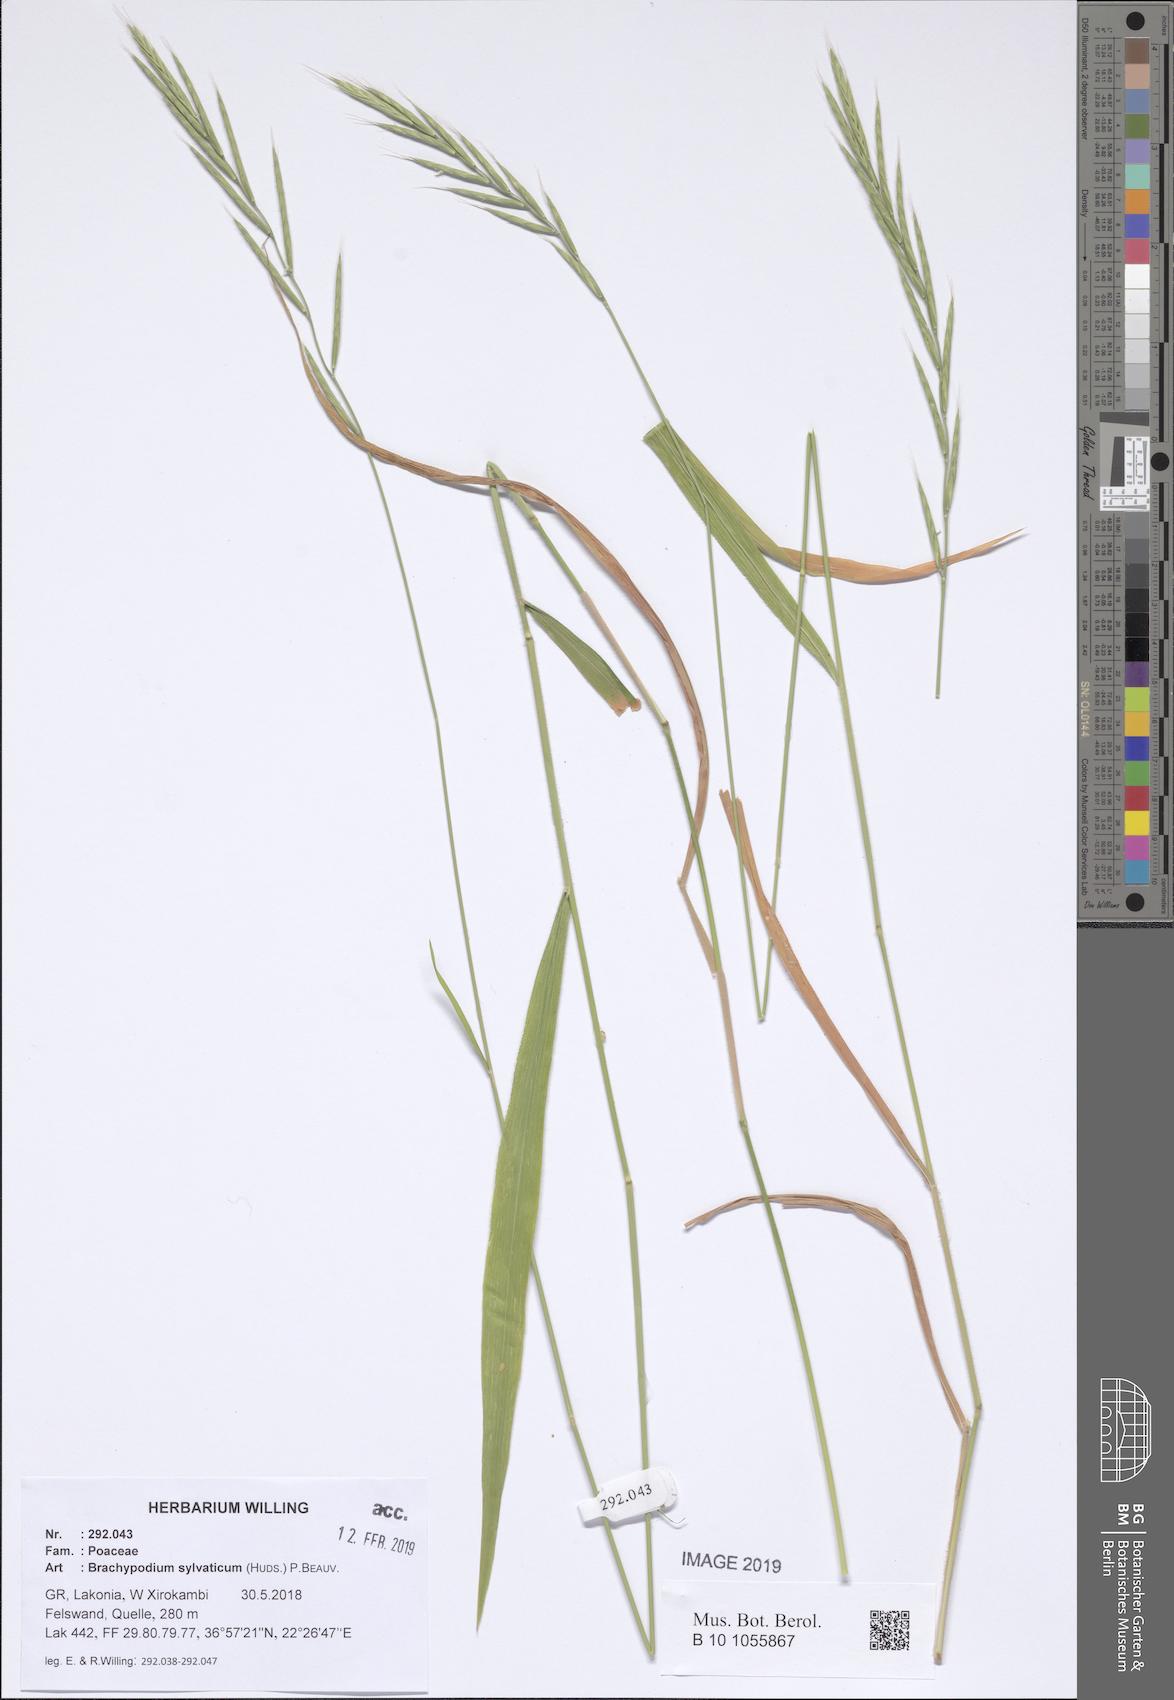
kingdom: Plantae
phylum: Tracheophyta
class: Liliopsida
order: Poales
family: Poaceae
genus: Brachypodium
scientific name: Brachypodium sylvaticum
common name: False-brome
